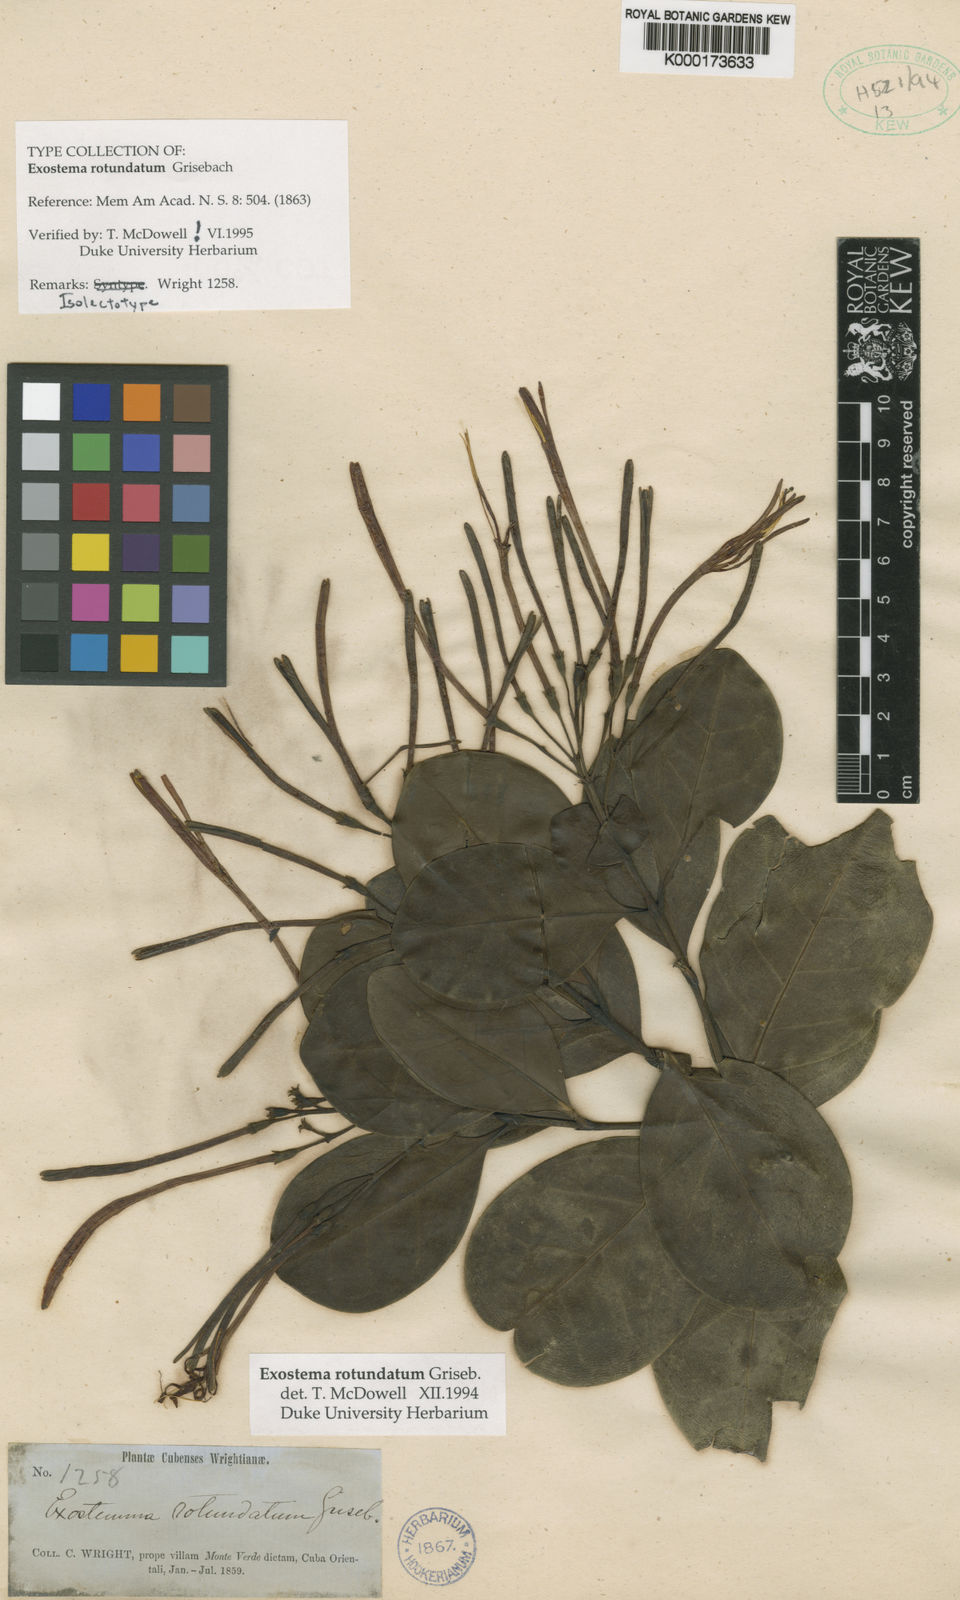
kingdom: Plantae
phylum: Tracheophyta
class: Magnoliopsida
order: Gentianales
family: Rubiaceae
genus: Solenandra
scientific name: Solenandra rotundata
